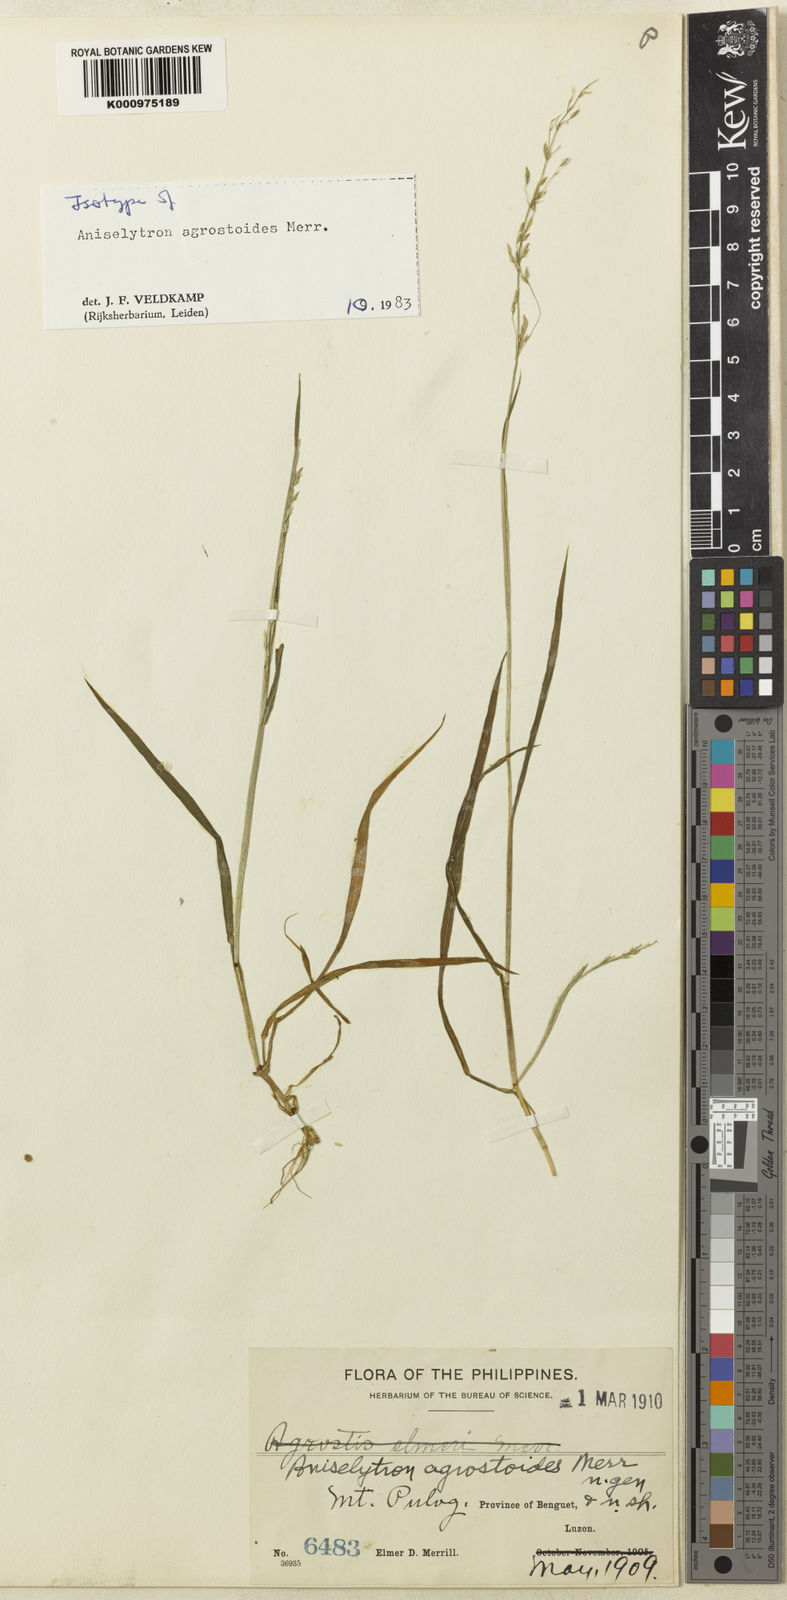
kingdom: Plantae
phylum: Tracheophyta
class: Liliopsida
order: Poales
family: Poaceae
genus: Aniselytron
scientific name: Aniselytron agrostoides
